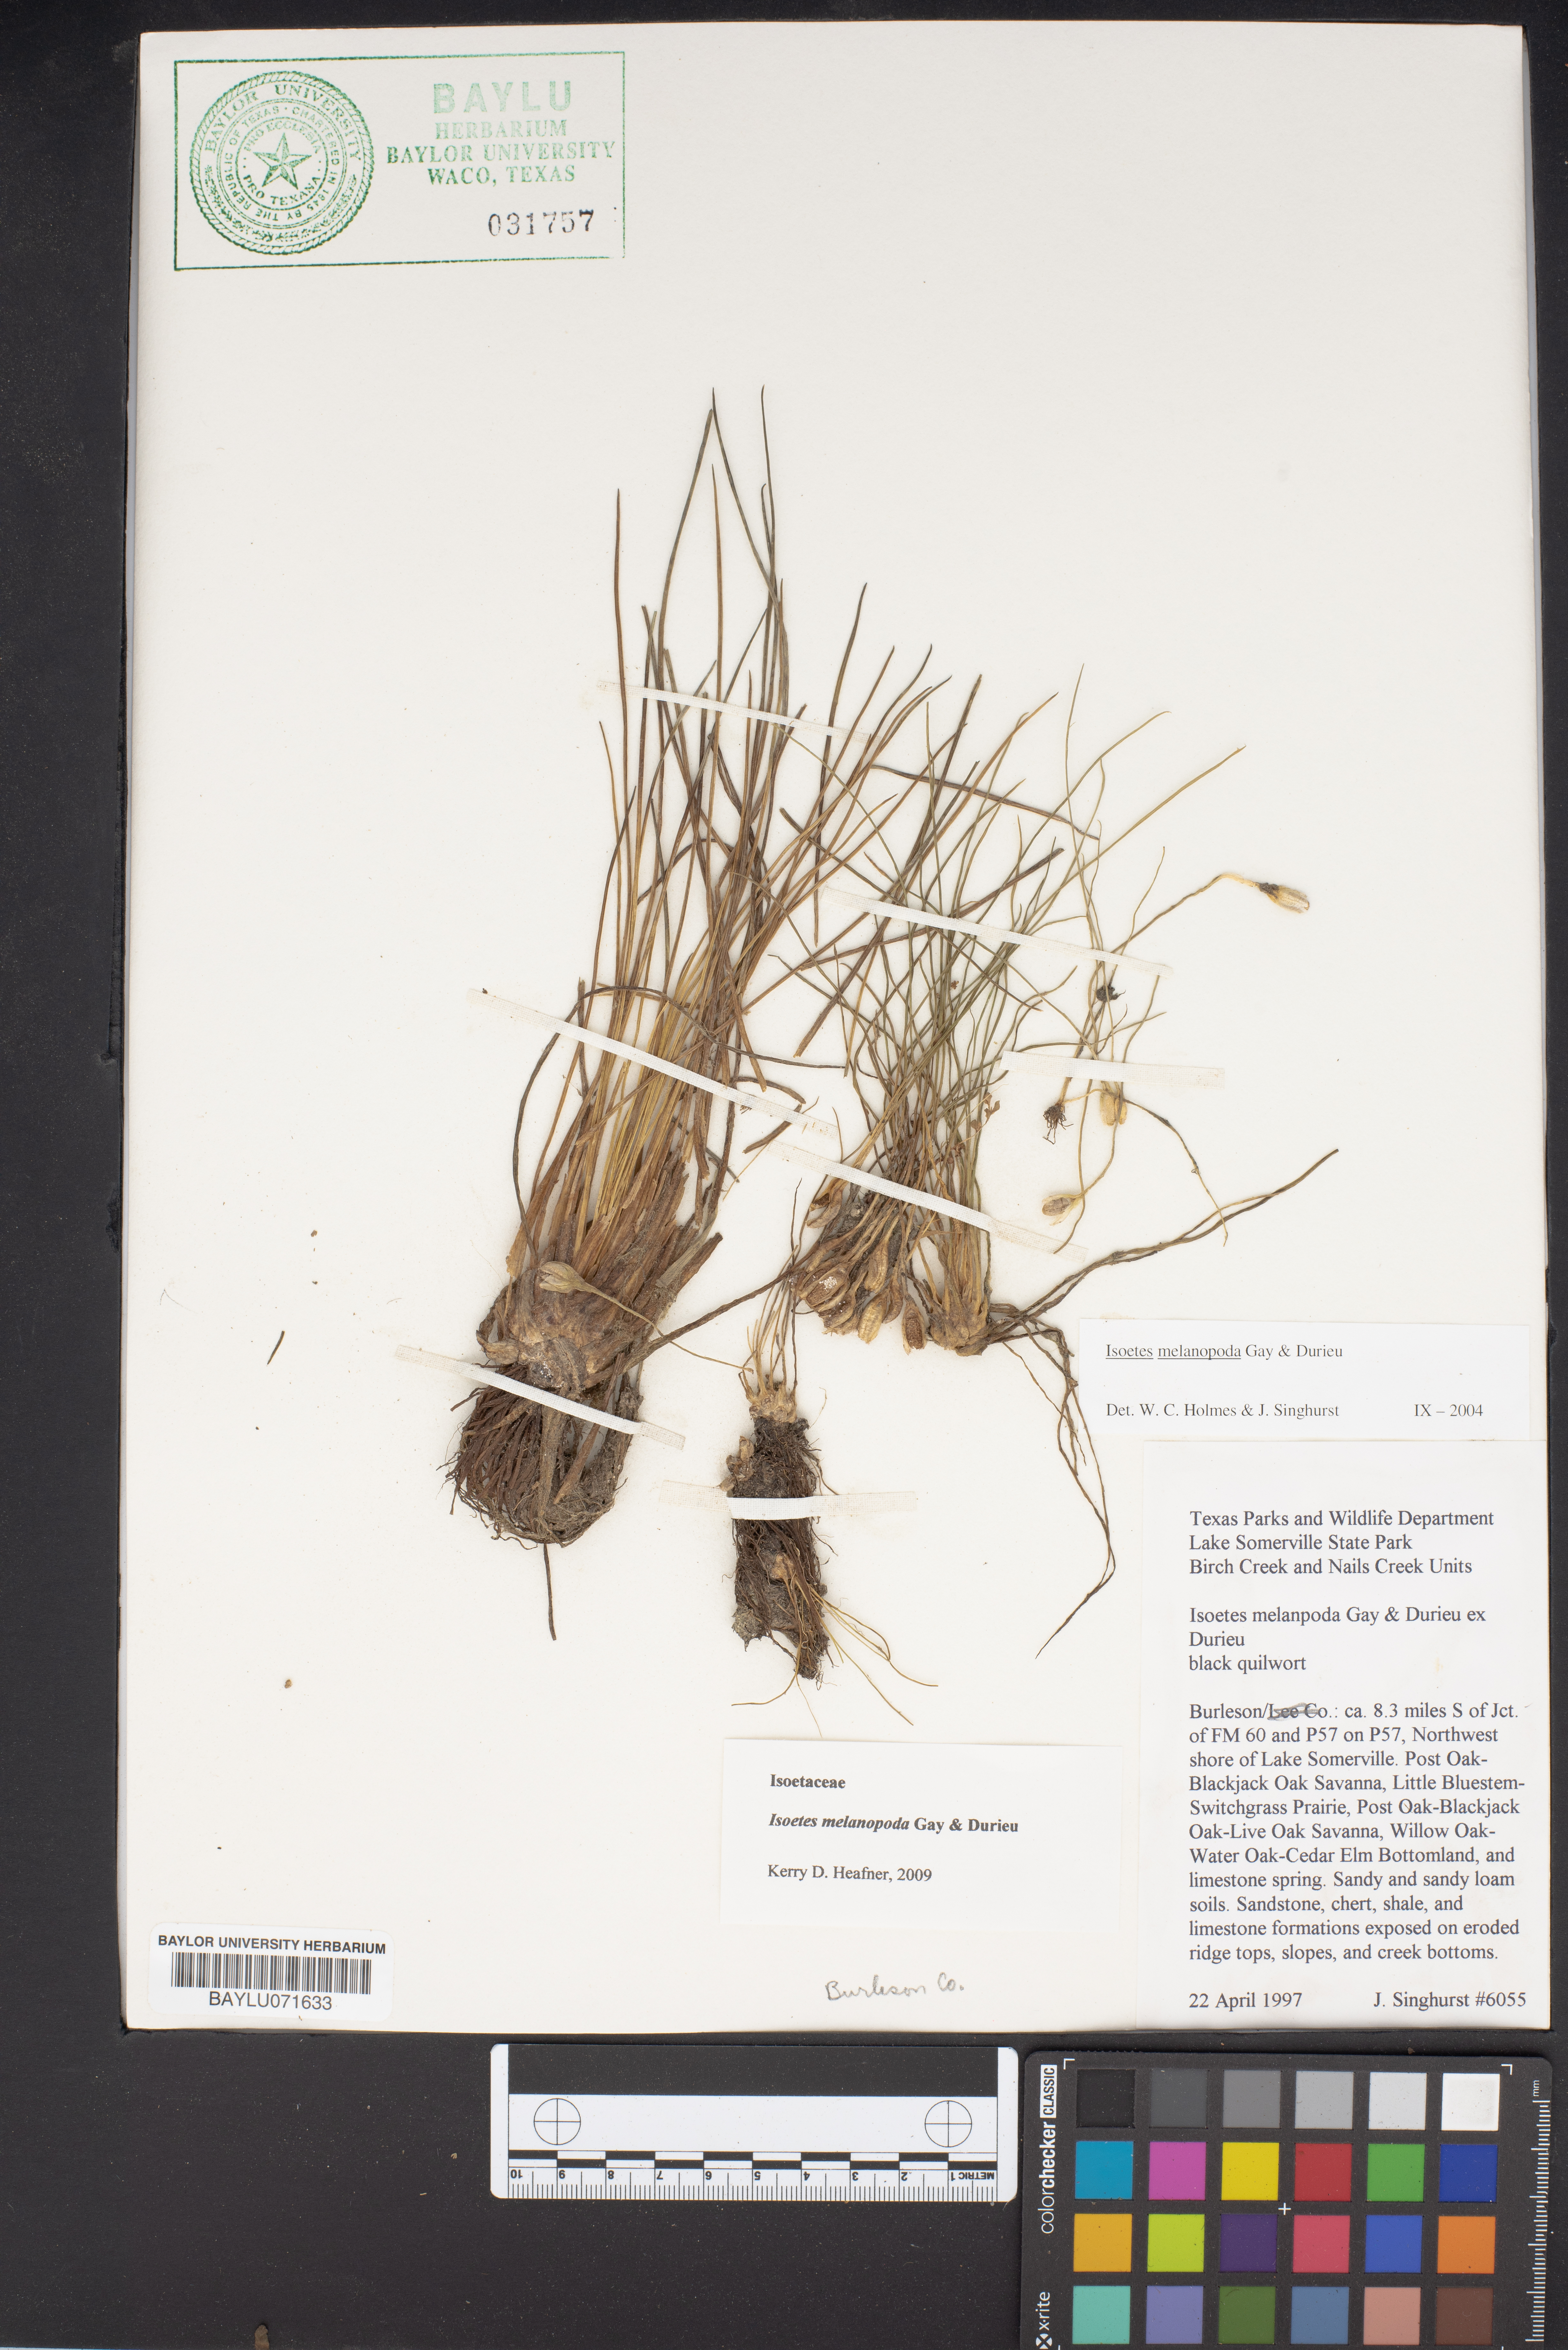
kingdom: Plantae
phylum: Tracheophyta
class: Lycopodiopsida
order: Isoetales
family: Isoetaceae
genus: Isoetes
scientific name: Isoetes melanopoda
